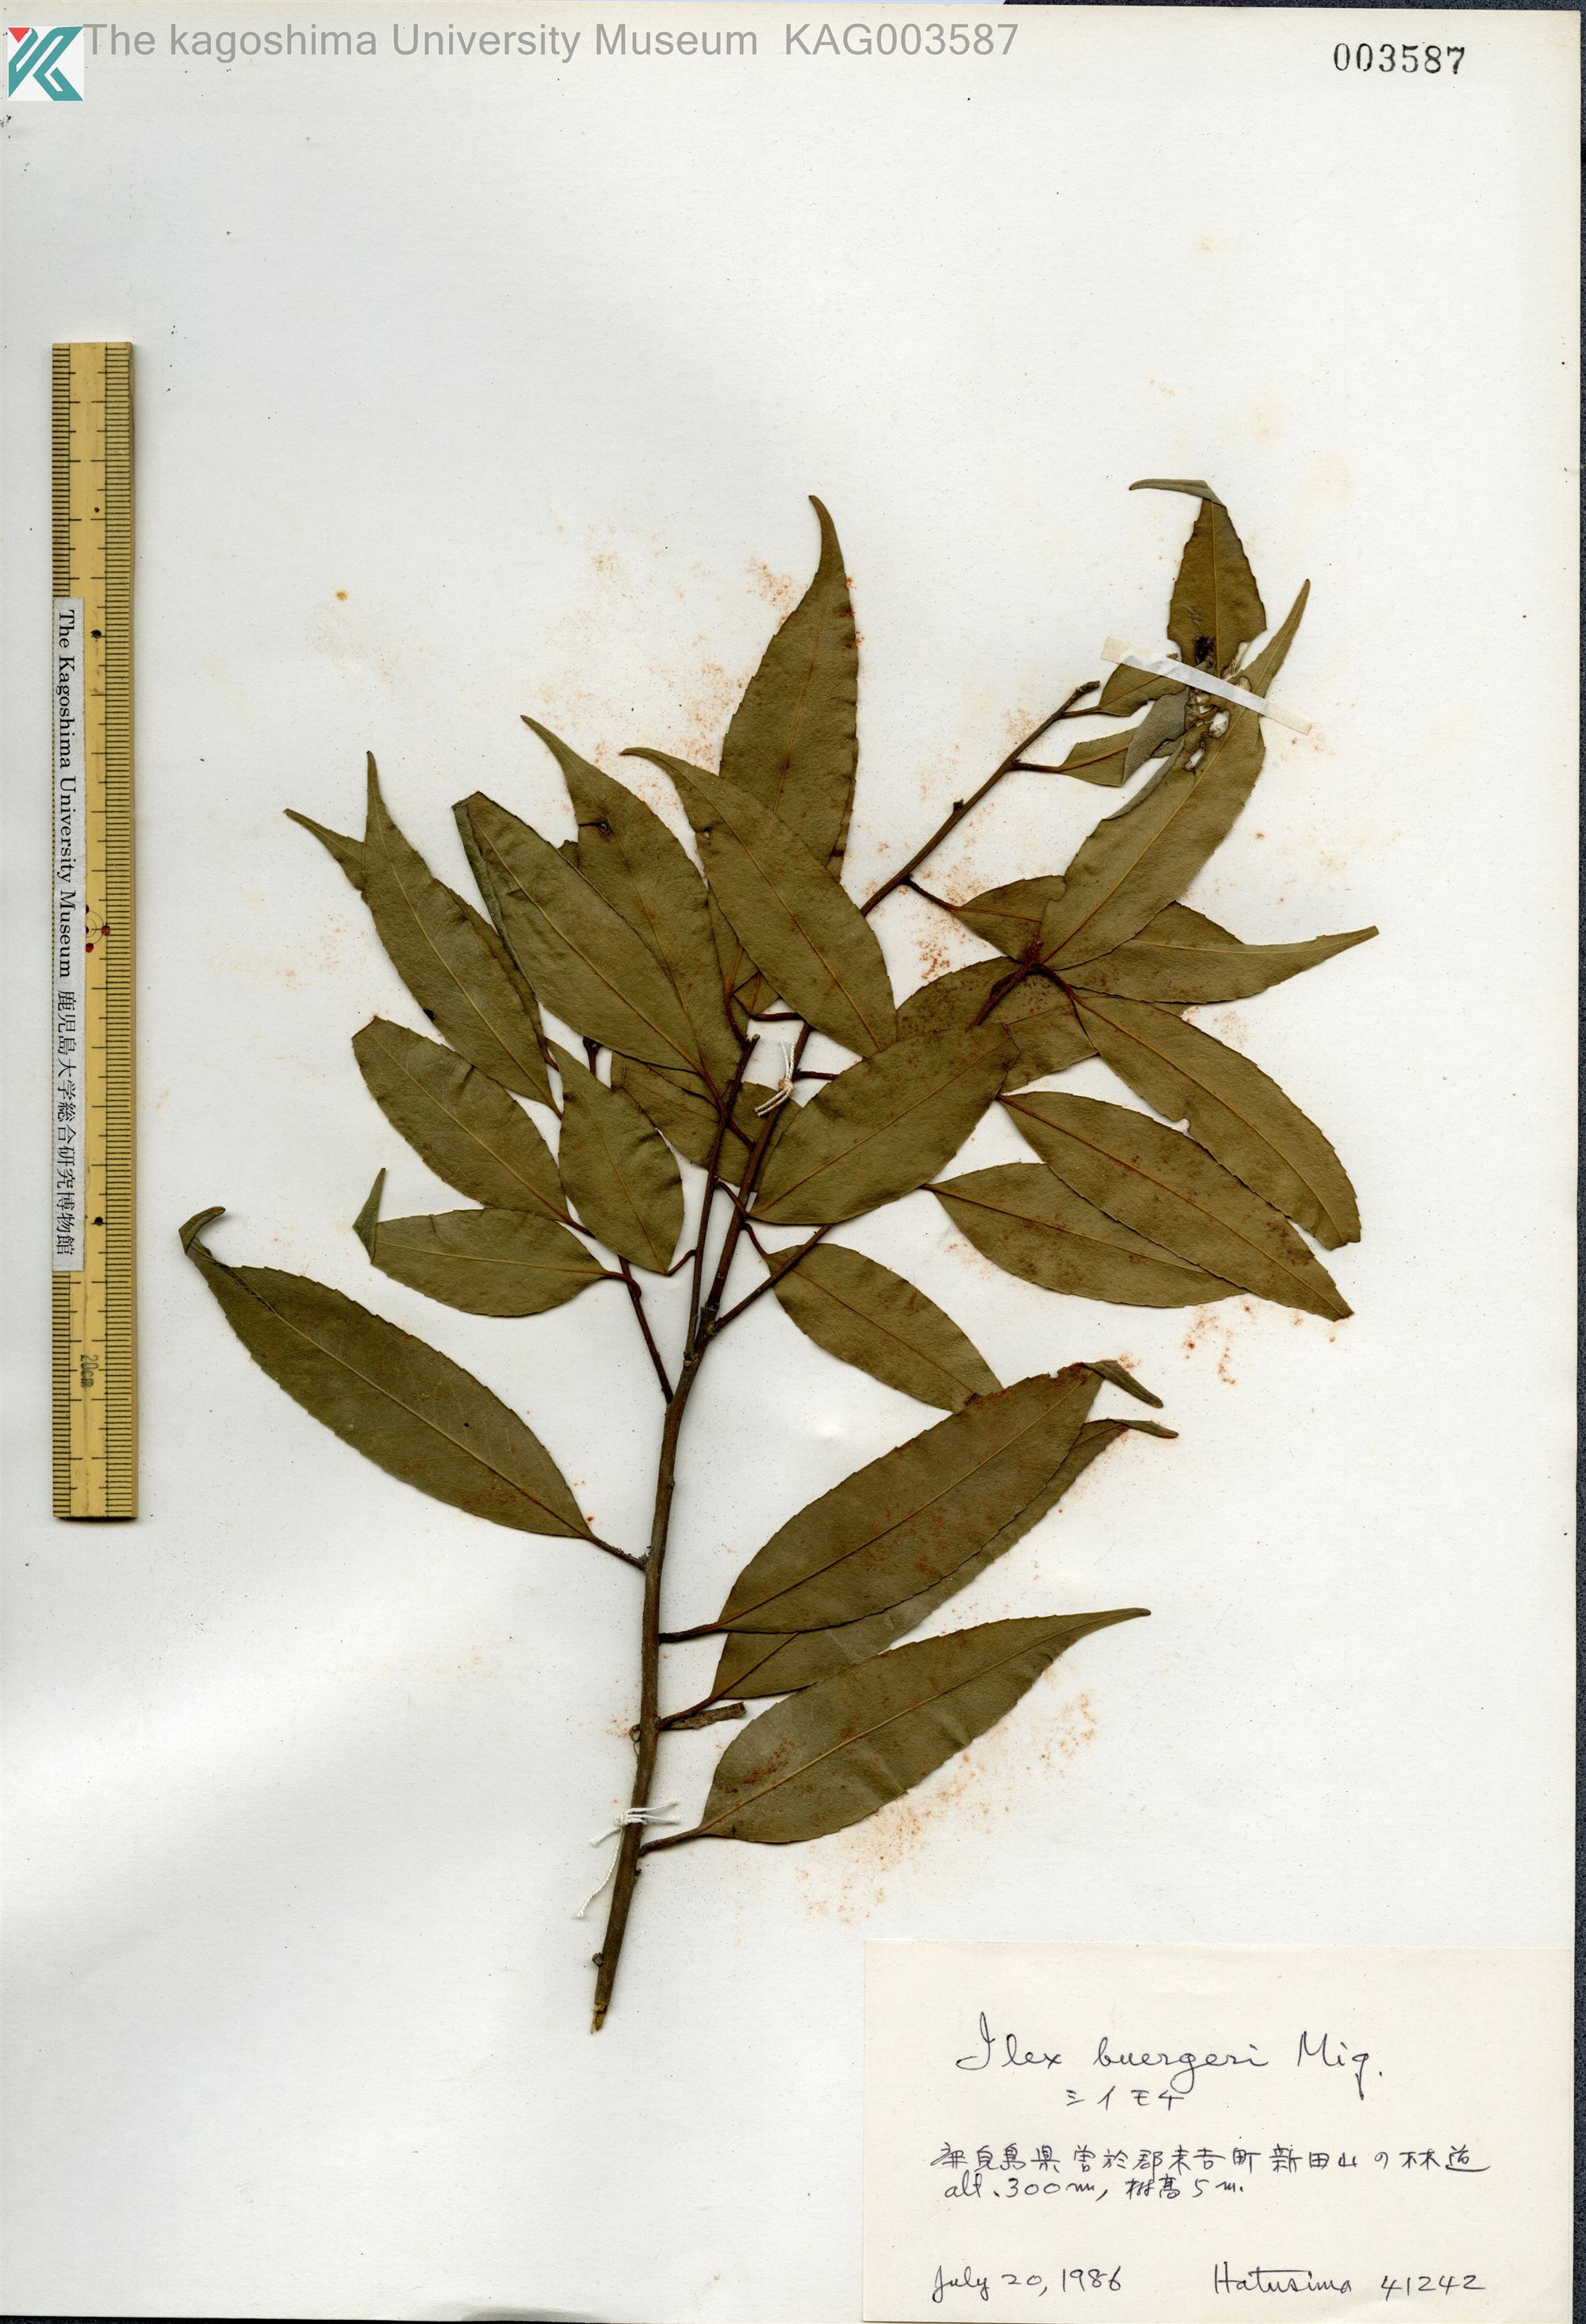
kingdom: Plantae
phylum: Tracheophyta
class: Magnoliopsida
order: Aquifoliales
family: Aquifoliaceae
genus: Ilex
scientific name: Ilex buergeri
